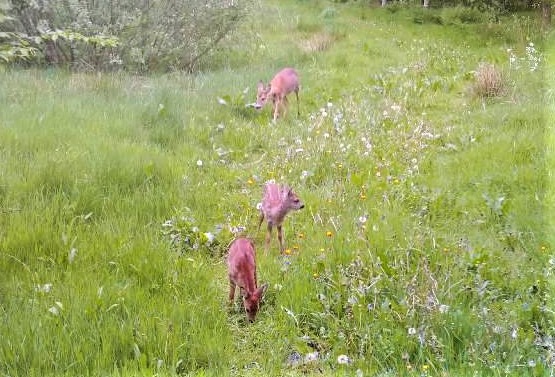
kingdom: Animalia
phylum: Chordata
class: Mammalia
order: Artiodactyla
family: Cervidae
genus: Capreolus
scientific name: Capreolus capreolus
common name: Rådyr
